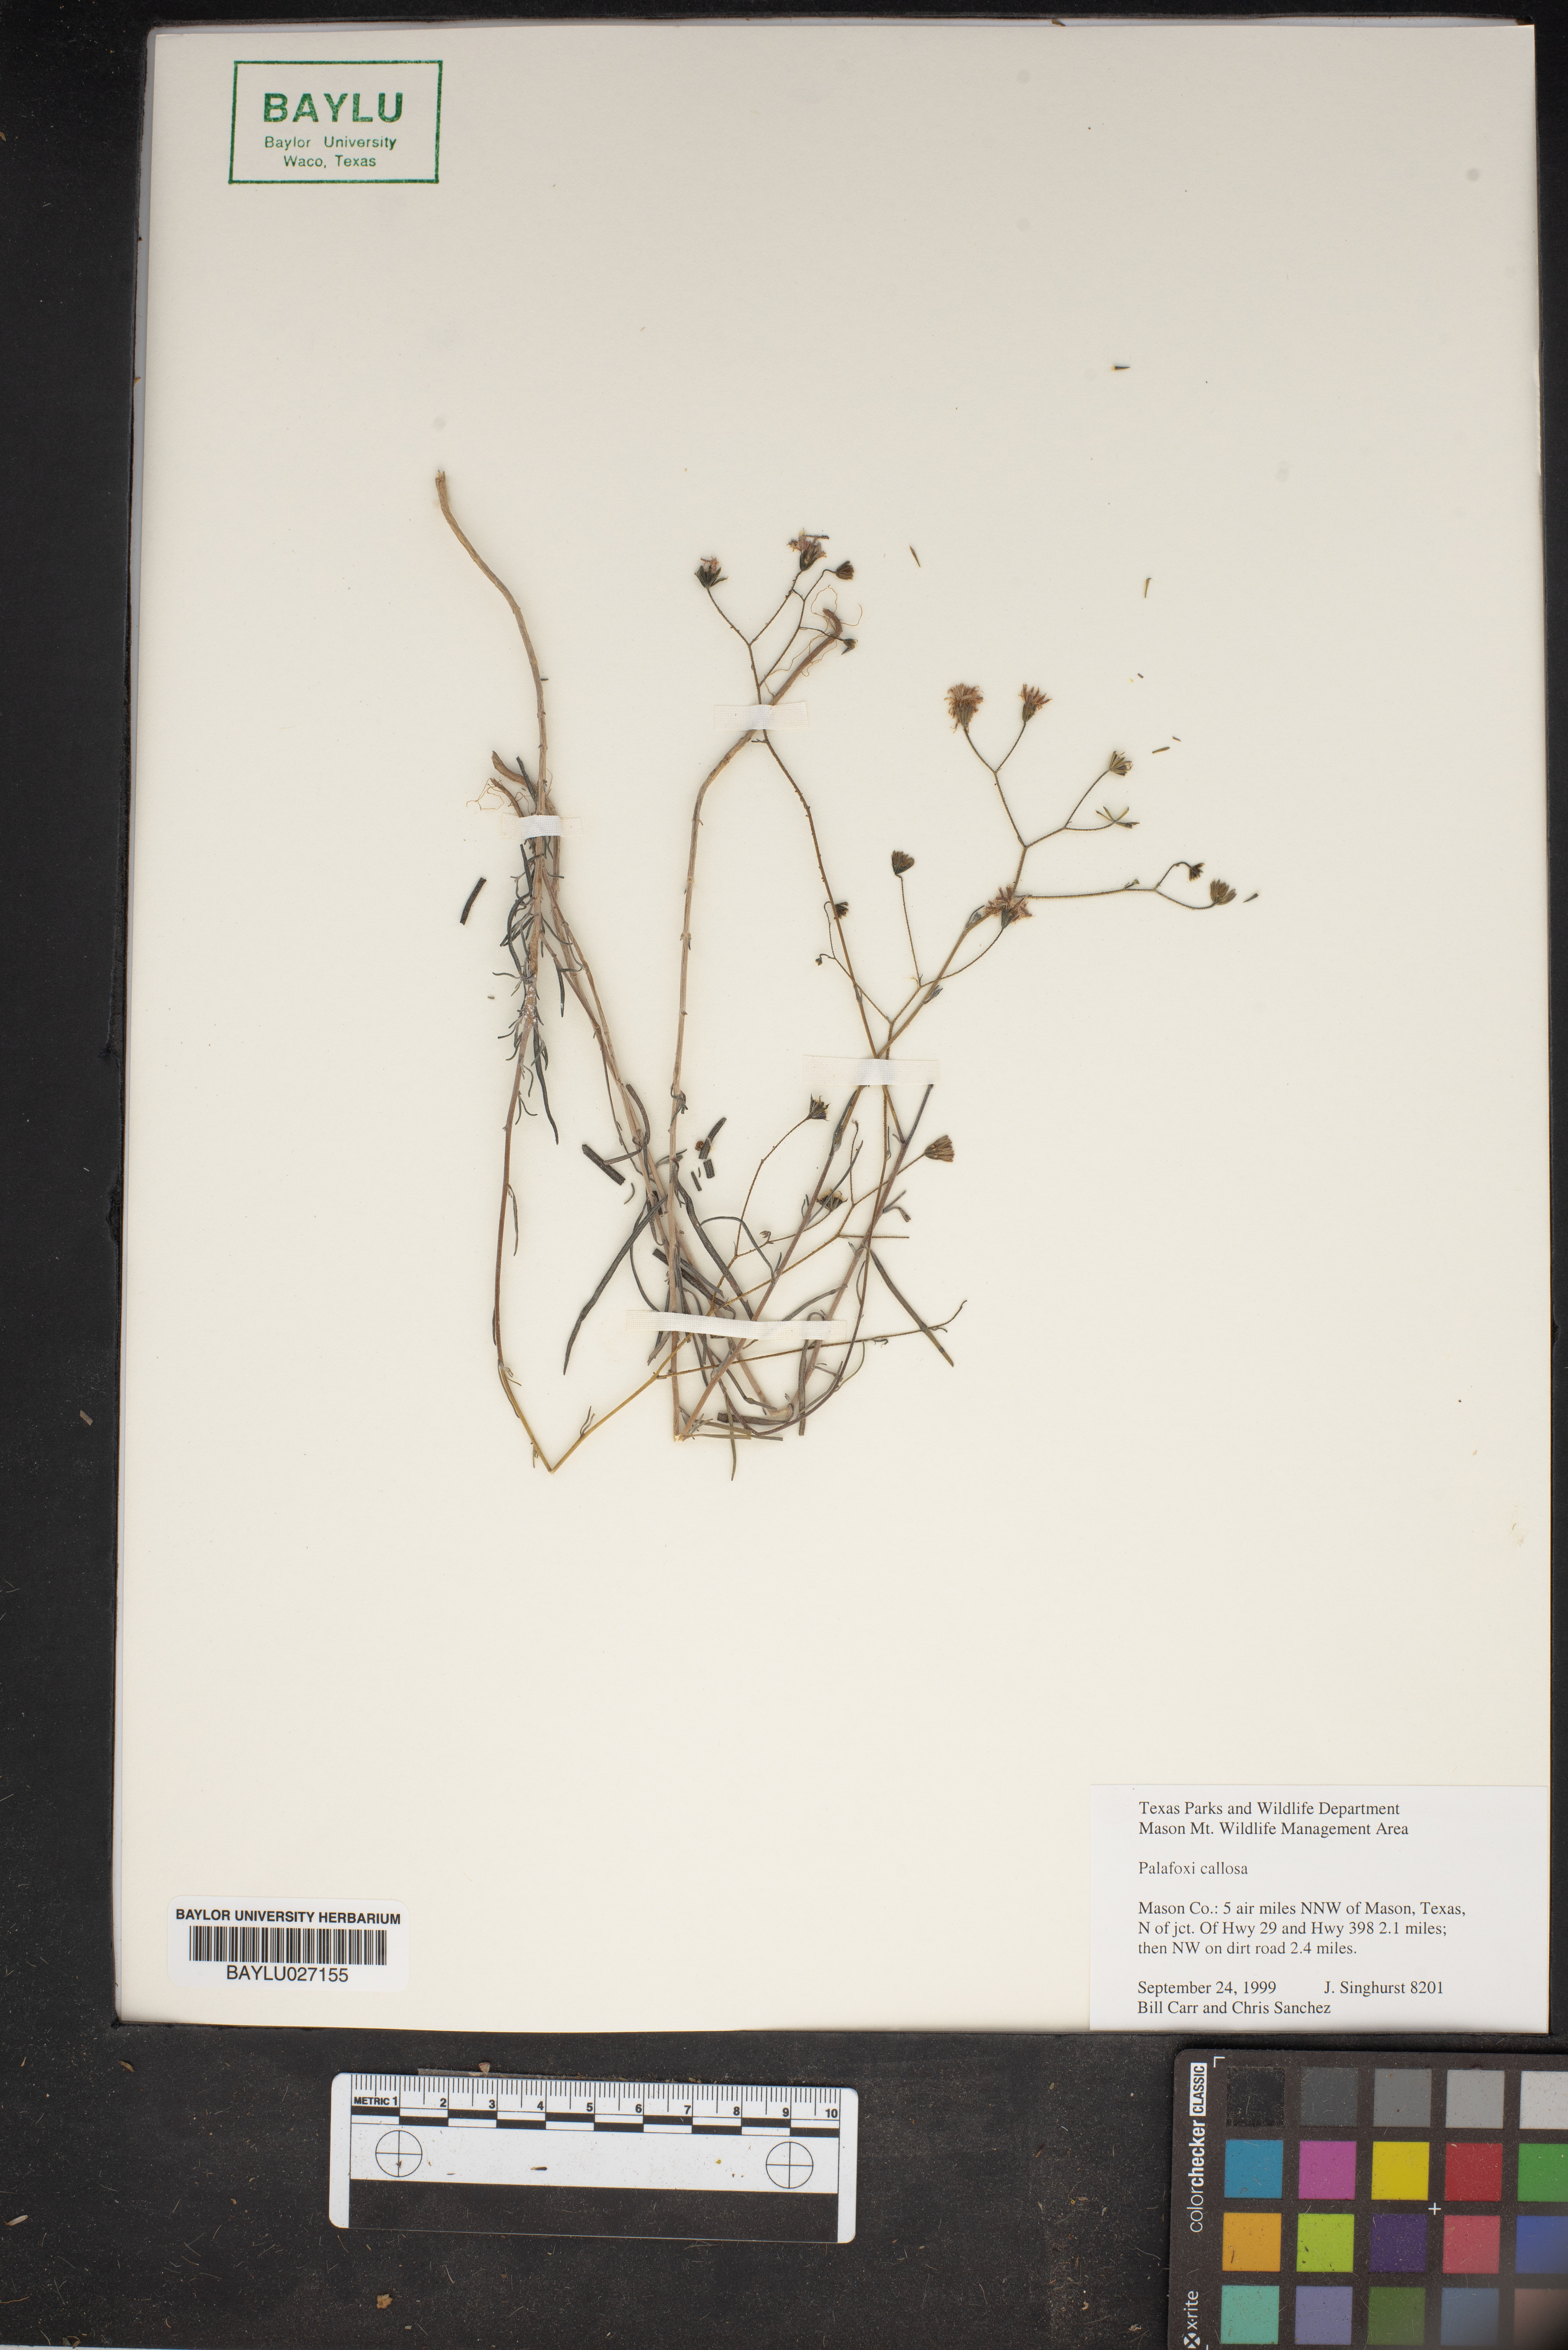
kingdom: Plantae
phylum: Tracheophyta
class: Magnoliopsida
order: Asterales
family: Asteraceae
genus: Palafoxia
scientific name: Palafoxia callosa
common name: Small palafox
